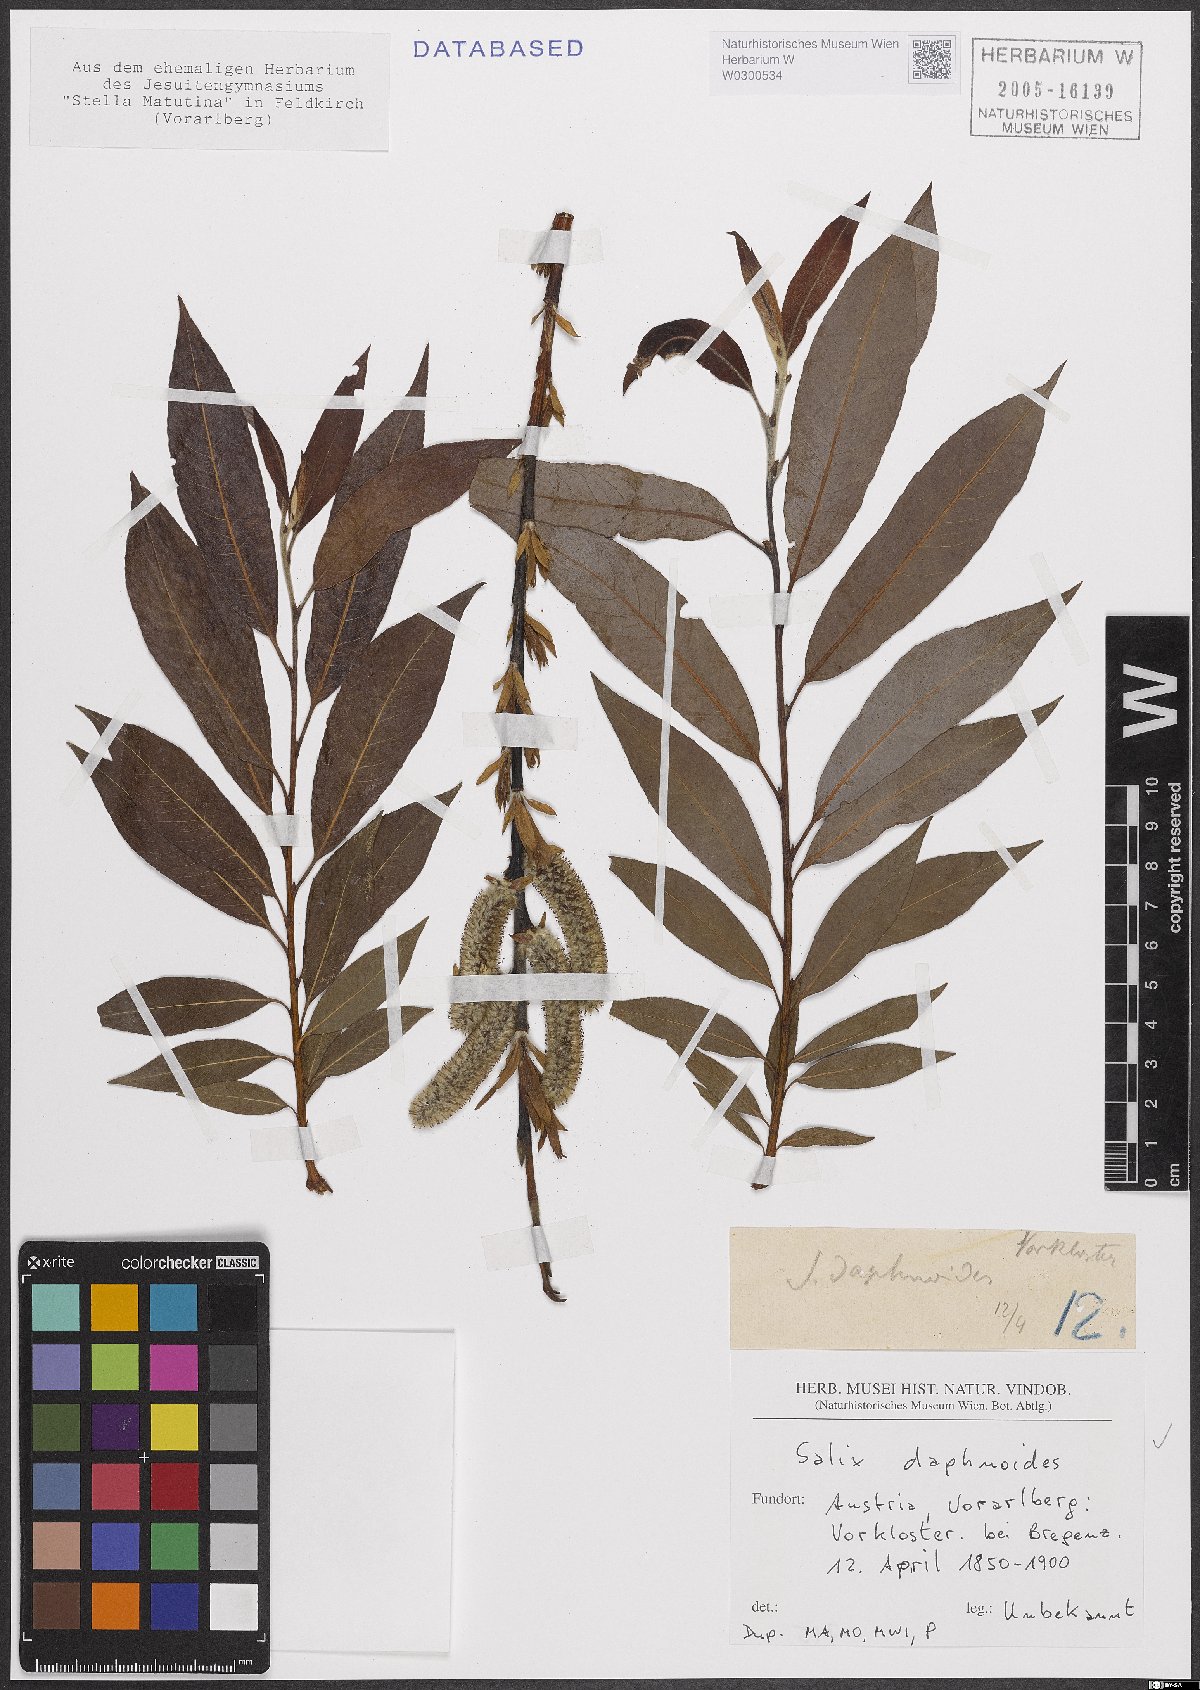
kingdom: Plantae
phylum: Tracheophyta
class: Magnoliopsida
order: Malpighiales
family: Salicaceae
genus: Salix
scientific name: Salix daphnoides
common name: European violet-willow
